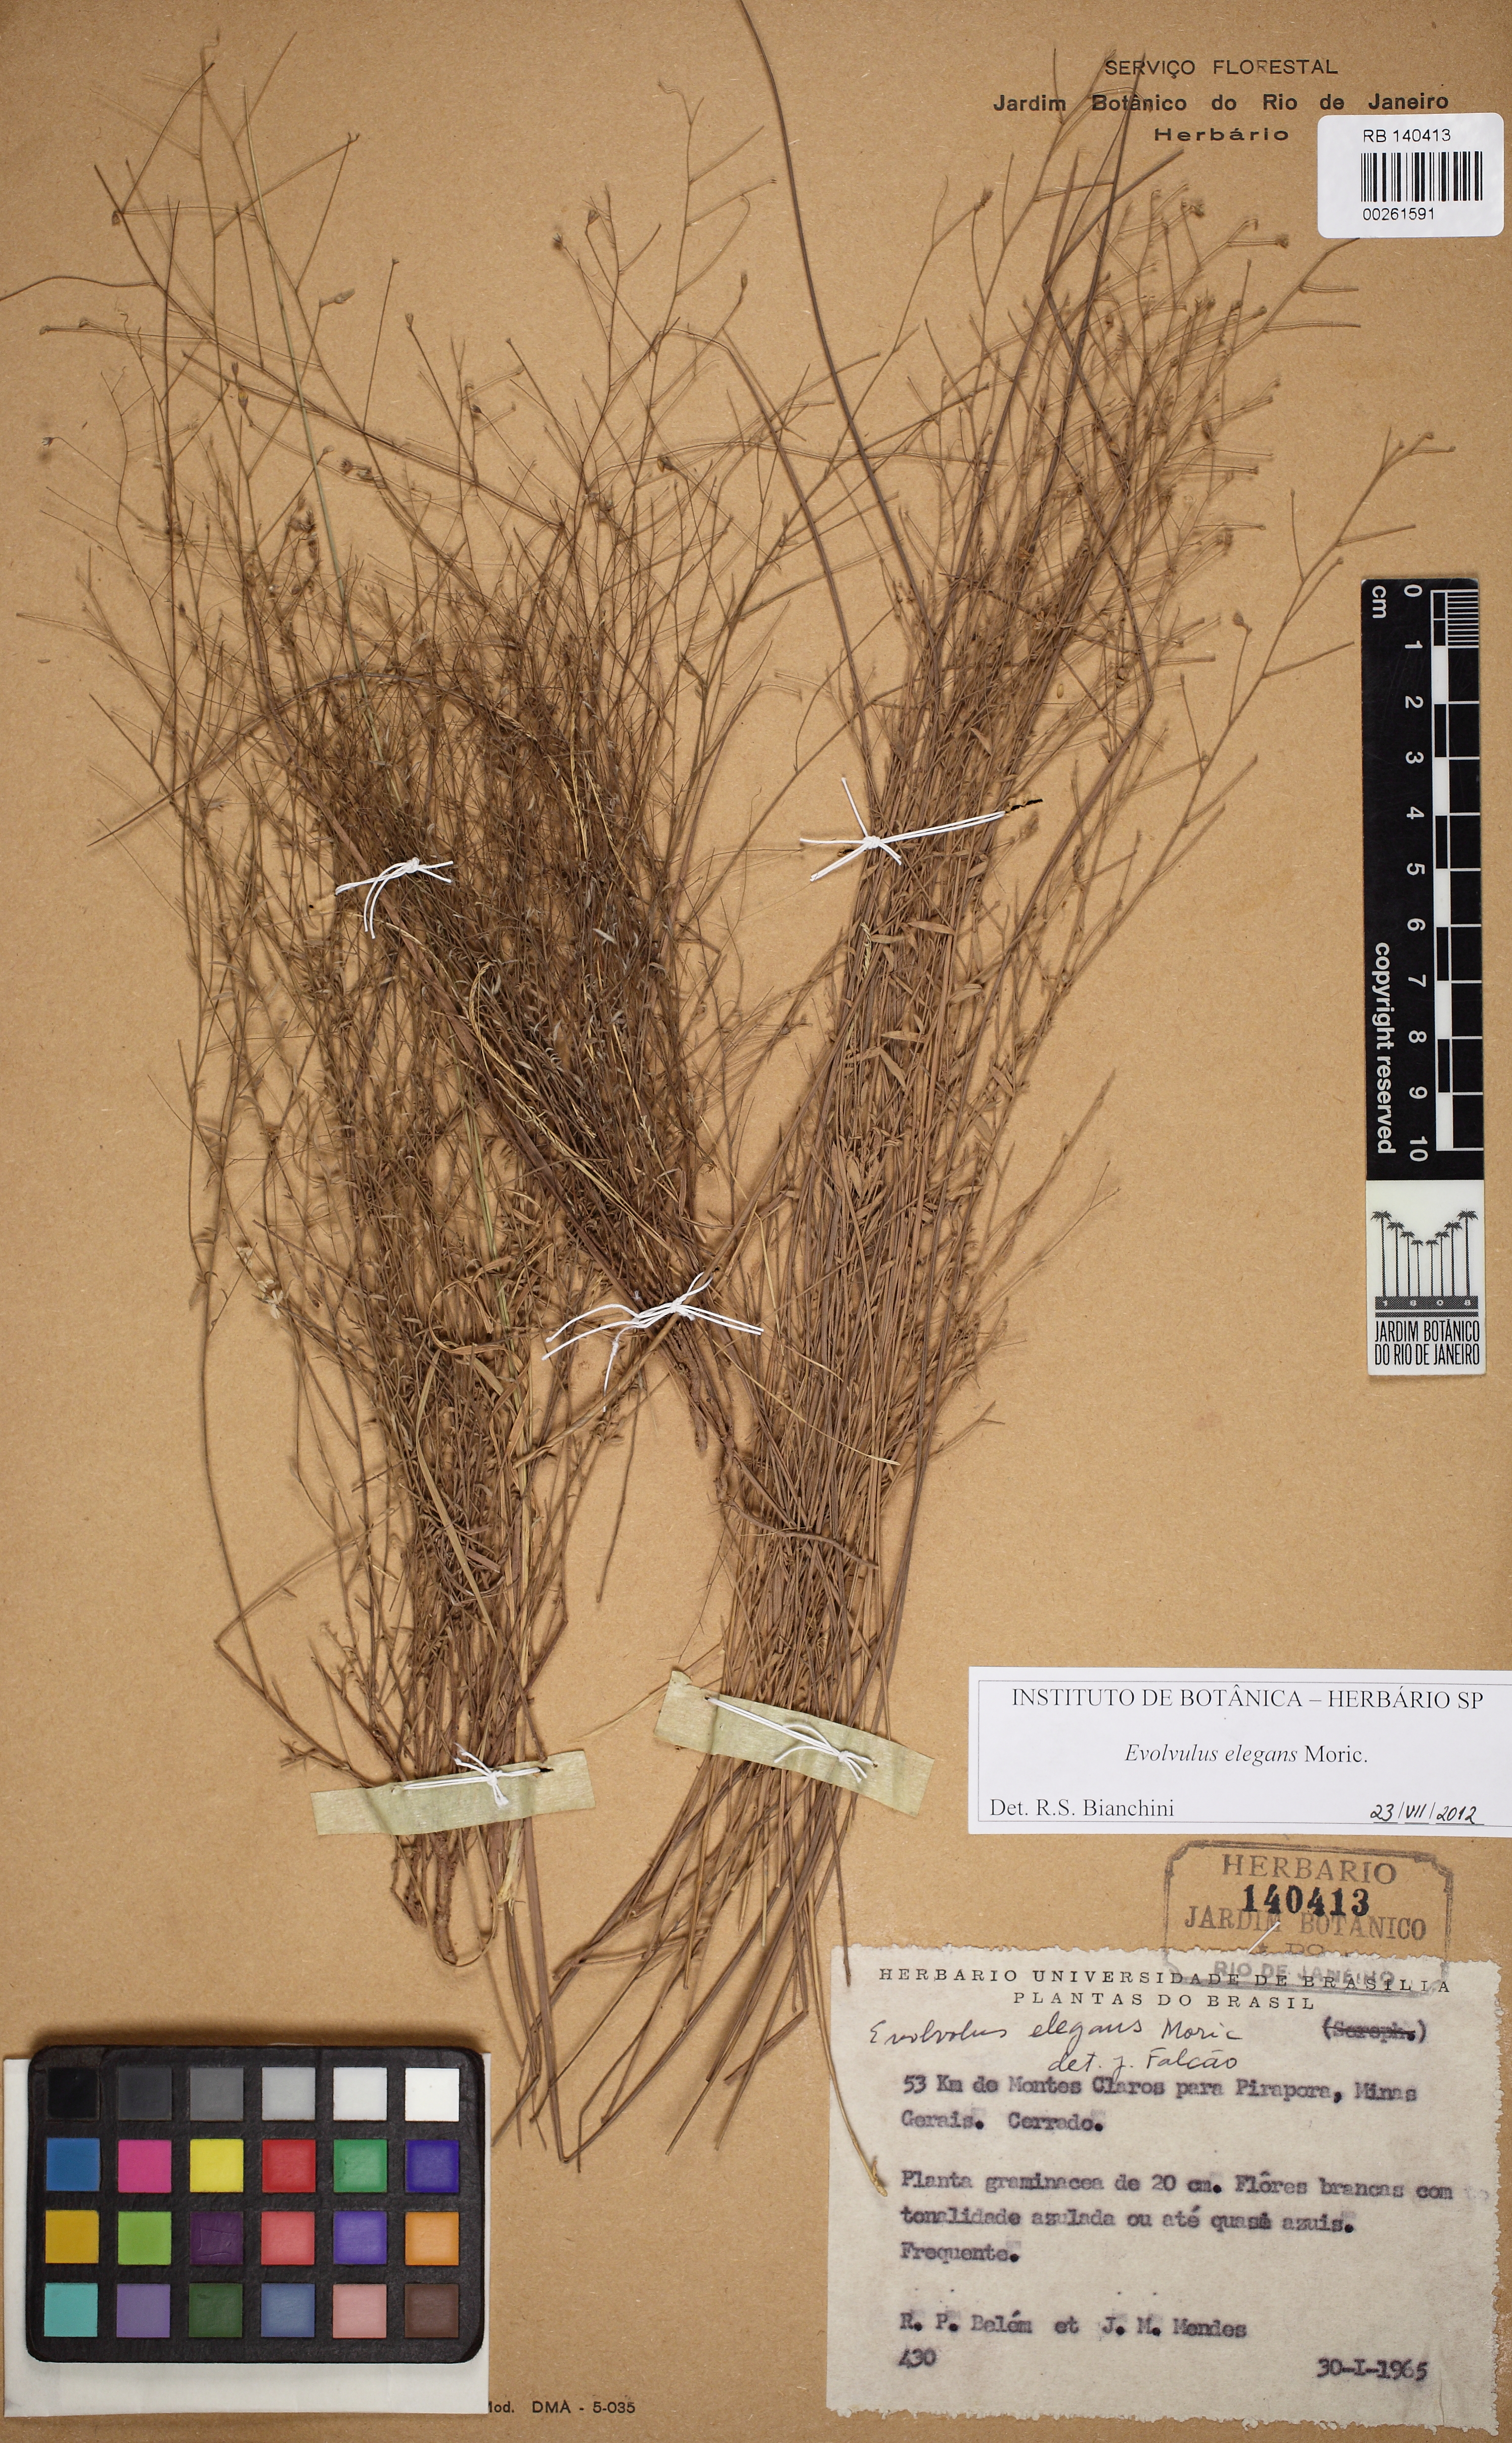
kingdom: Plantae
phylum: Tracheophyta
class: Magnoliopsida
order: Solanales
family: Convolvulaceae
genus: Evolvulus
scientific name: Evolvulus elegans
